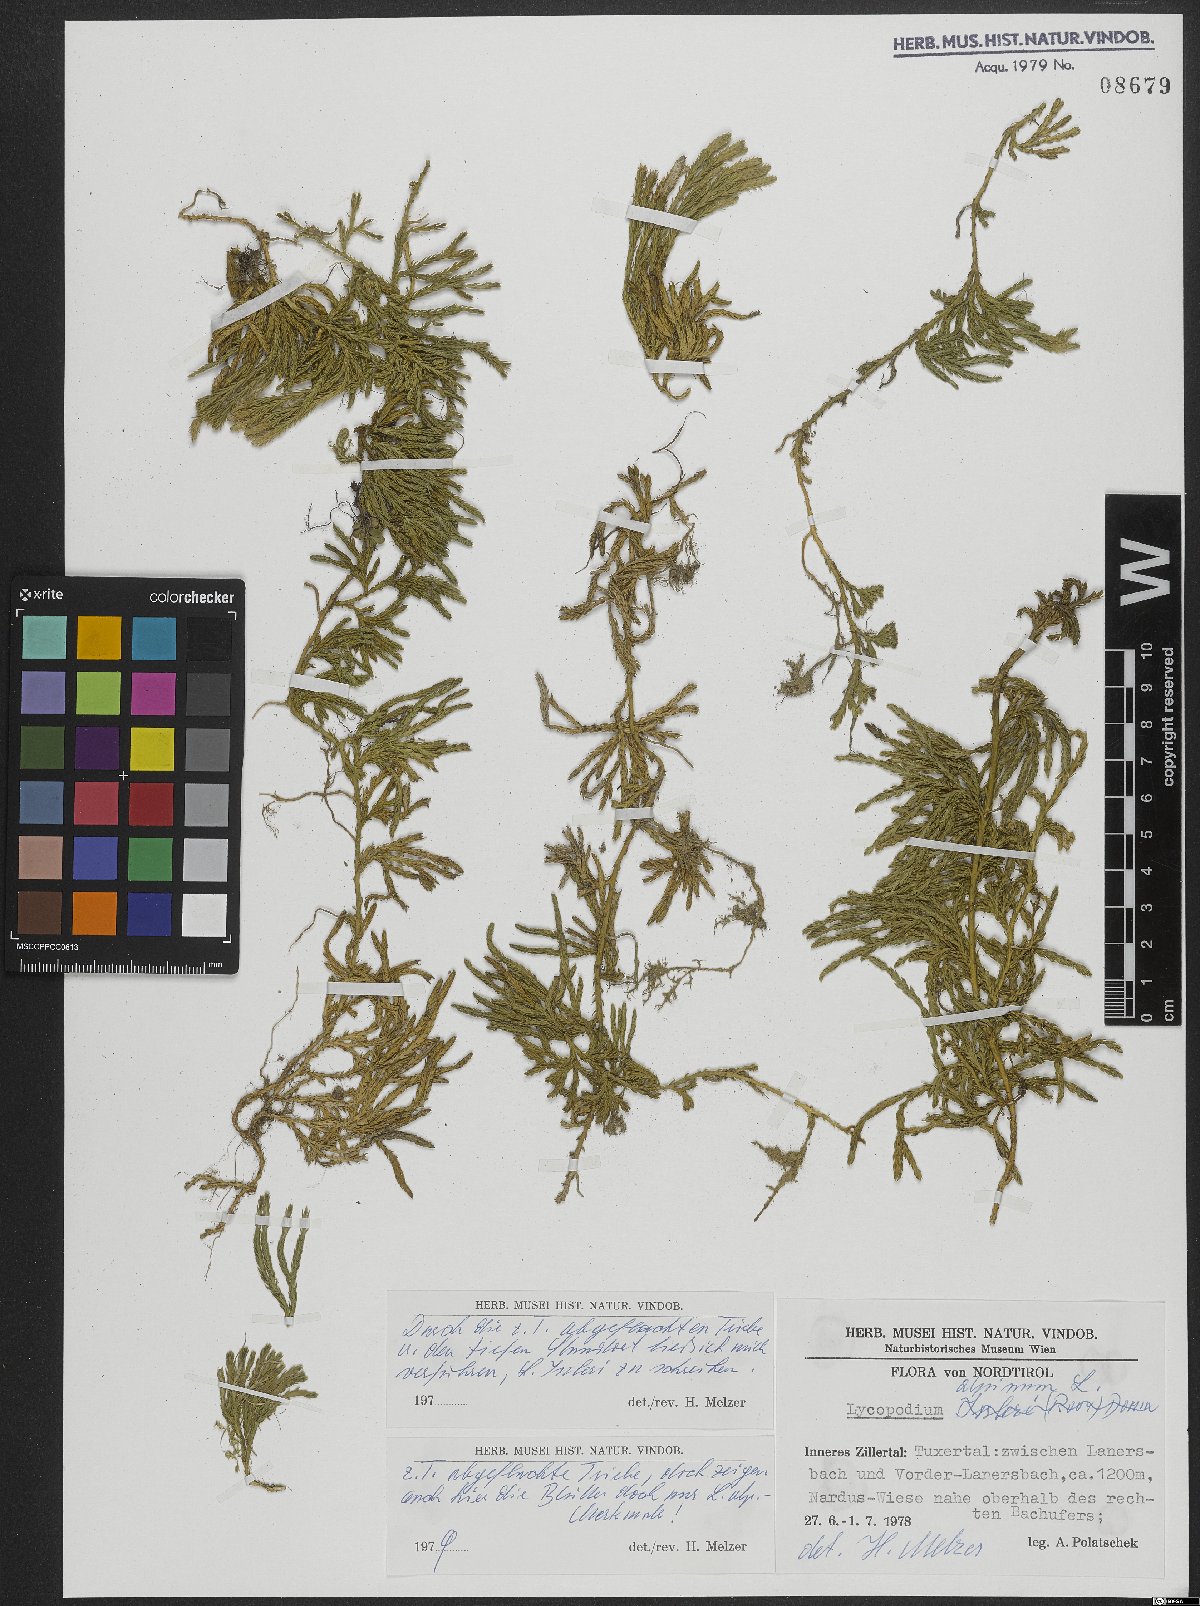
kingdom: Plantae
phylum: Tracheophyta
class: Lycopodiopsida
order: Lycopodiales
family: Lycopodiaceae
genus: Diphasiastrum
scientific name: Diphasiastrum alpinum
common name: Alpine clubmoss
